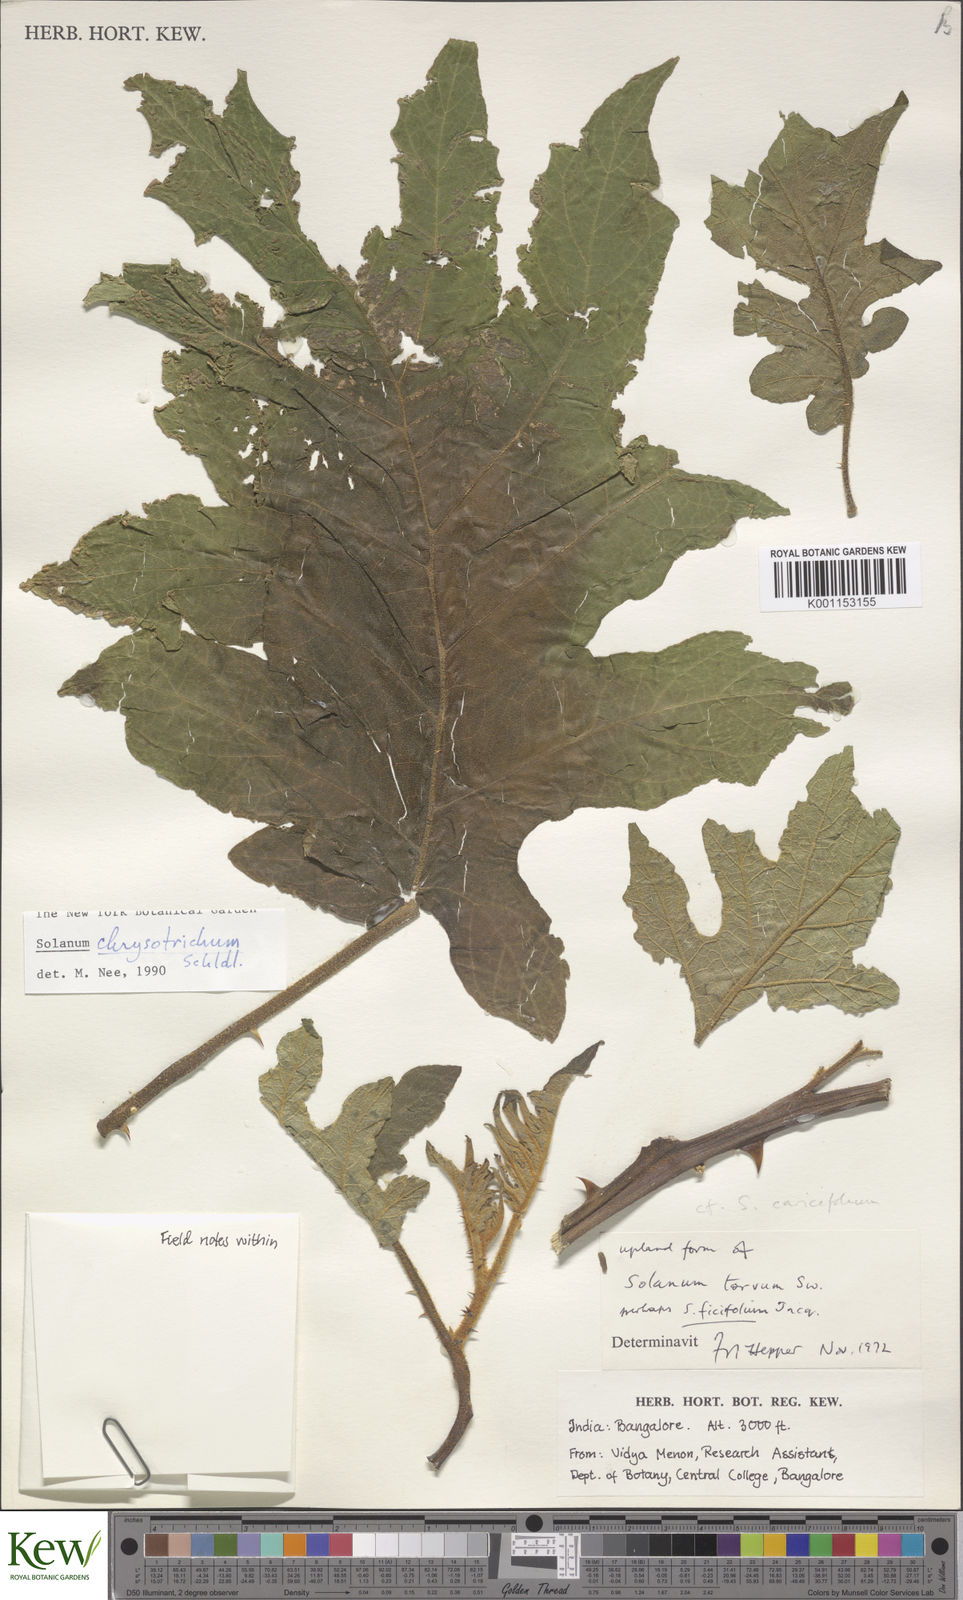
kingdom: Plantae
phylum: Tracheophyta
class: Magnoliopsida
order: Solanales
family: Solanaceae
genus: Solanum
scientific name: Solanum chrysotrichum
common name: Nightshade
